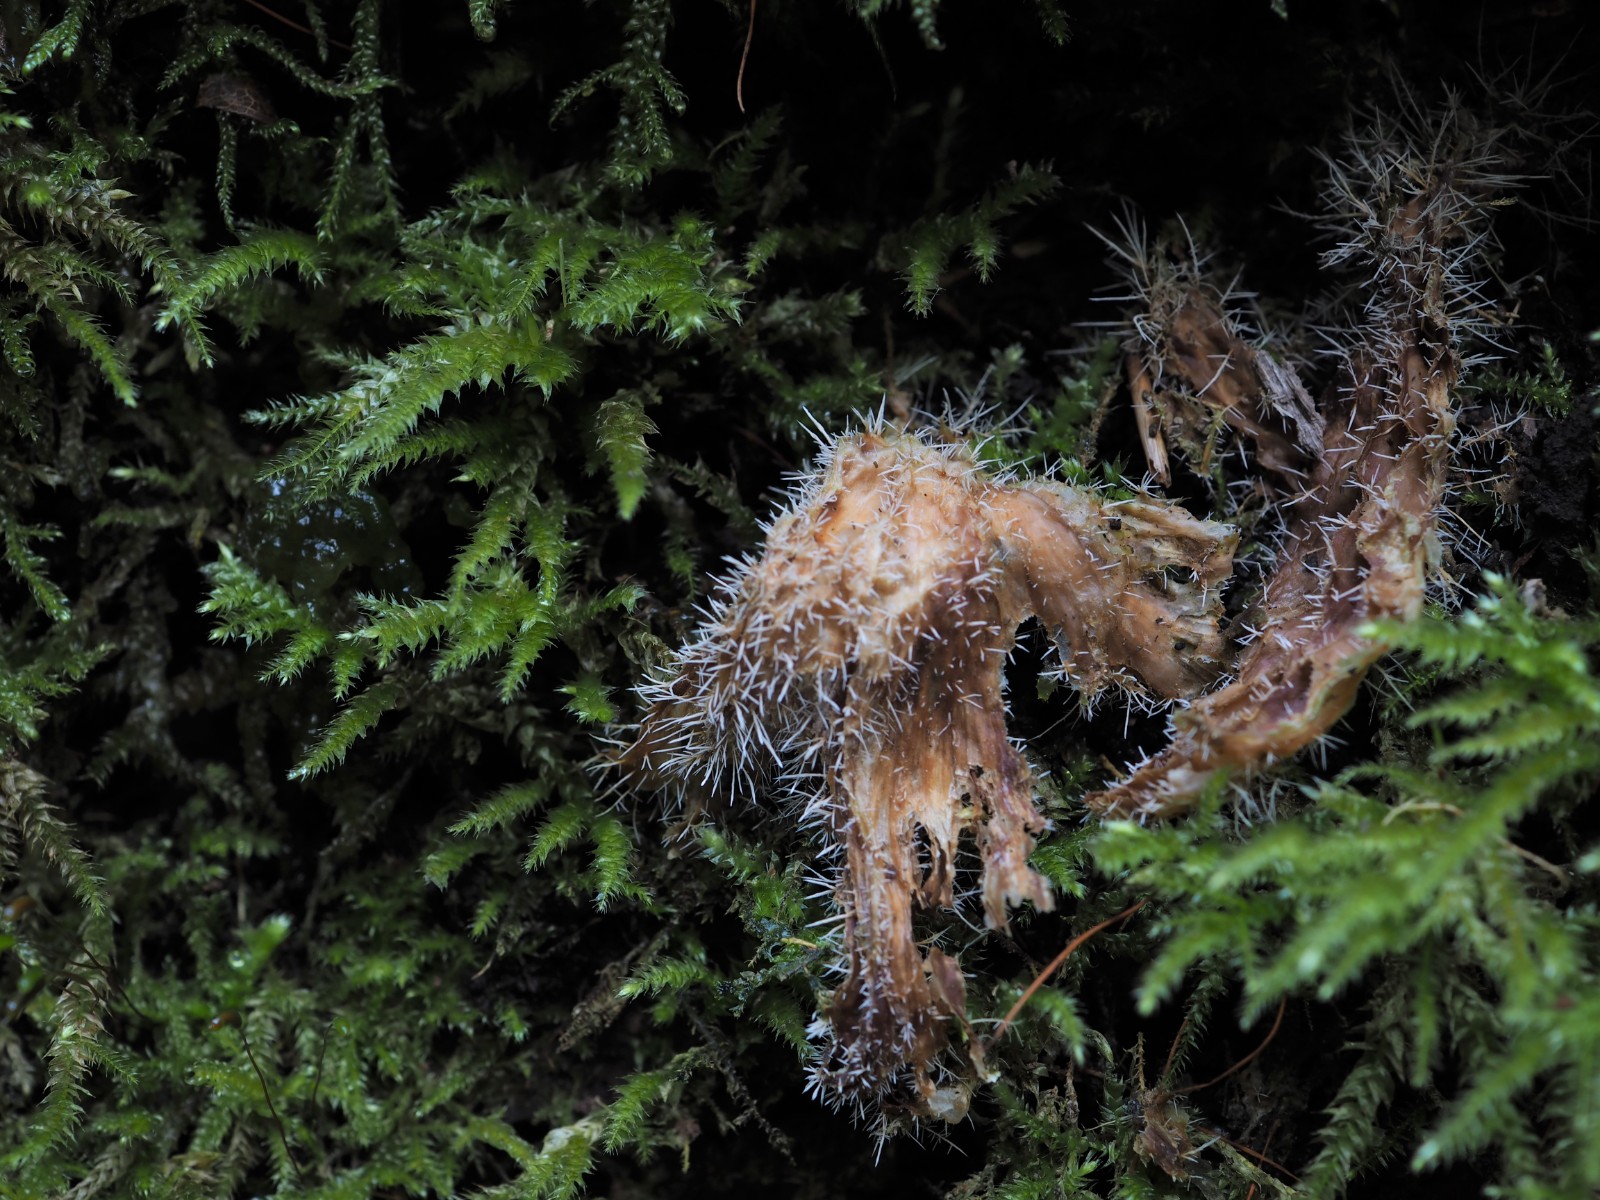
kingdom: Fungi
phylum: Ascomycota
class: Sordariomycetes
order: Hypocreales
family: Tilachlidiaceae
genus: Tilachlidium
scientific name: Tilachlidium brachiatum
